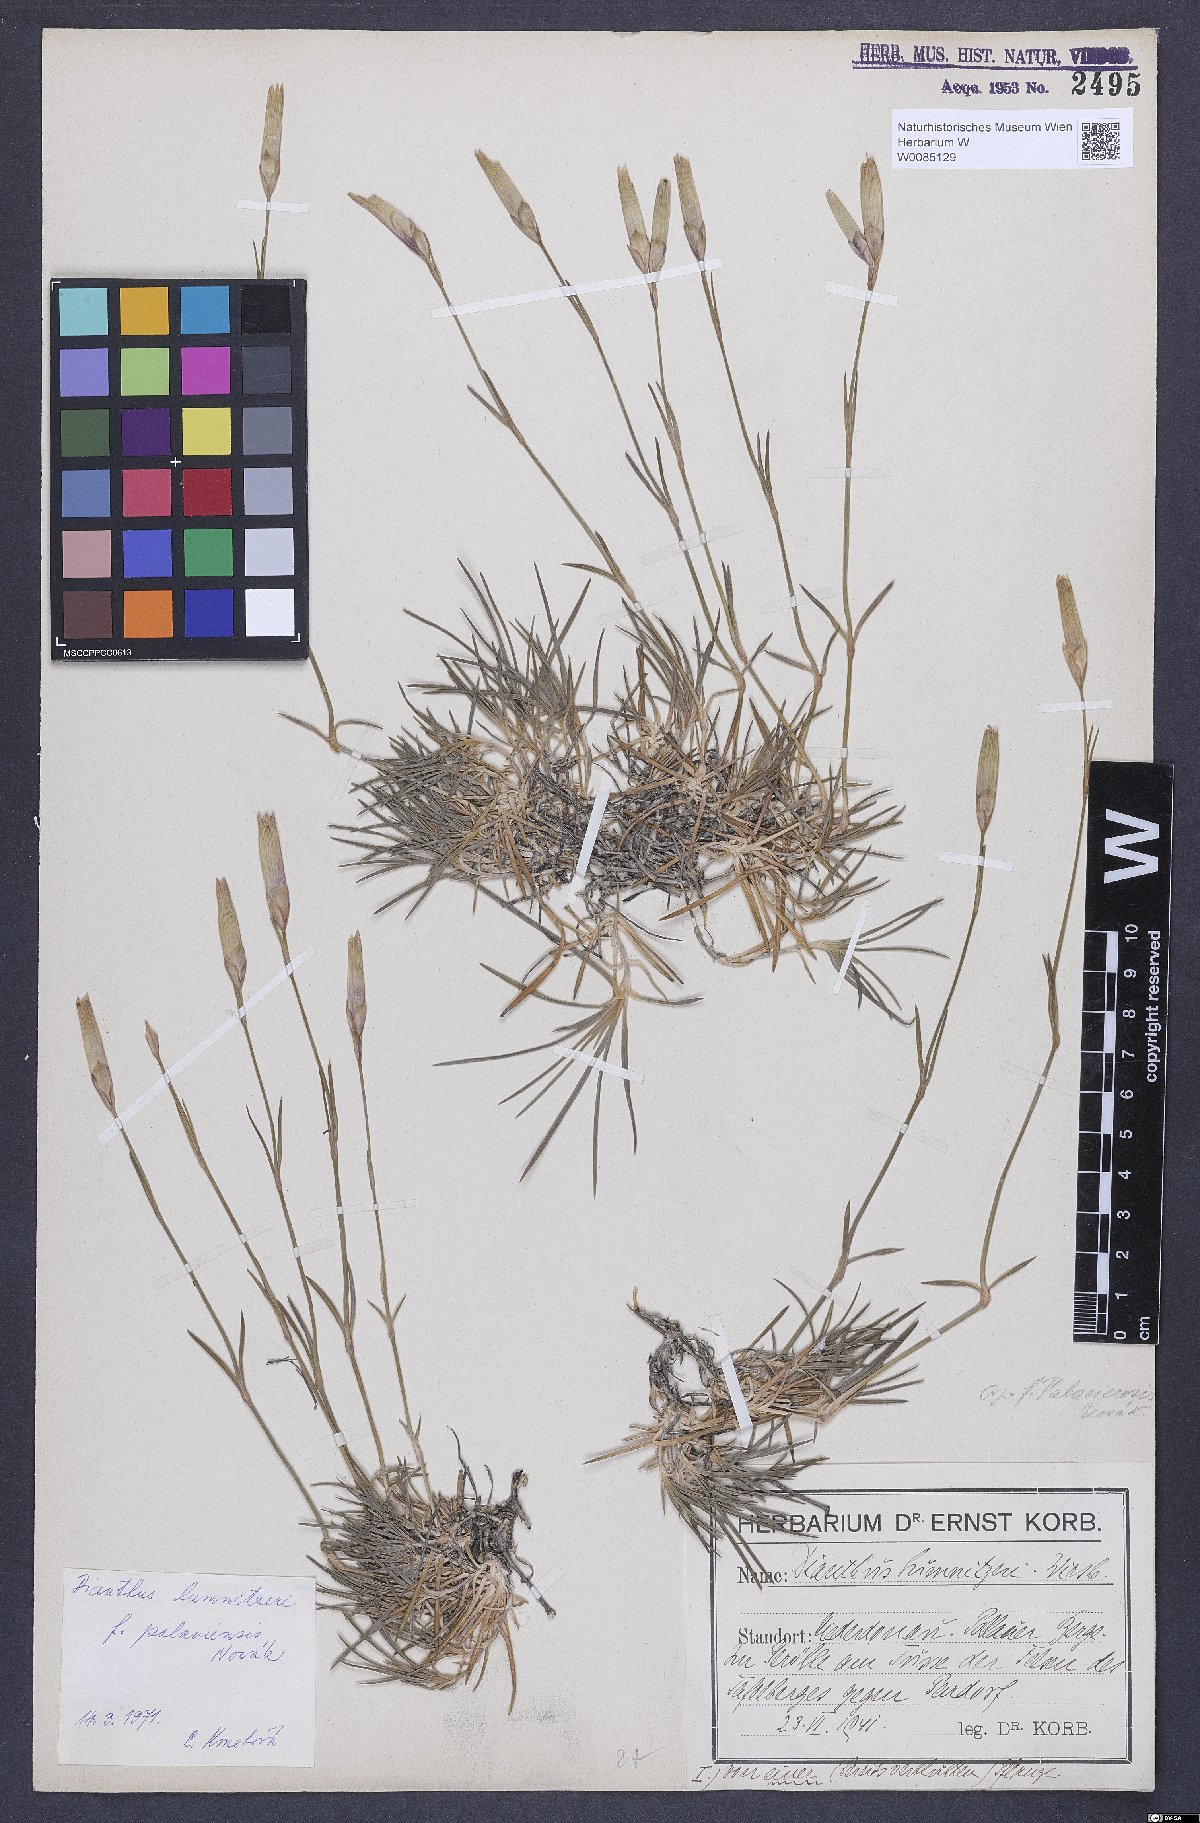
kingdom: Plantae
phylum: Tracheophyta
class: Magnoliopsida
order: Caryophyllales
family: Caryophyllaceae
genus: Dianthus
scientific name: Dianthus praecox
